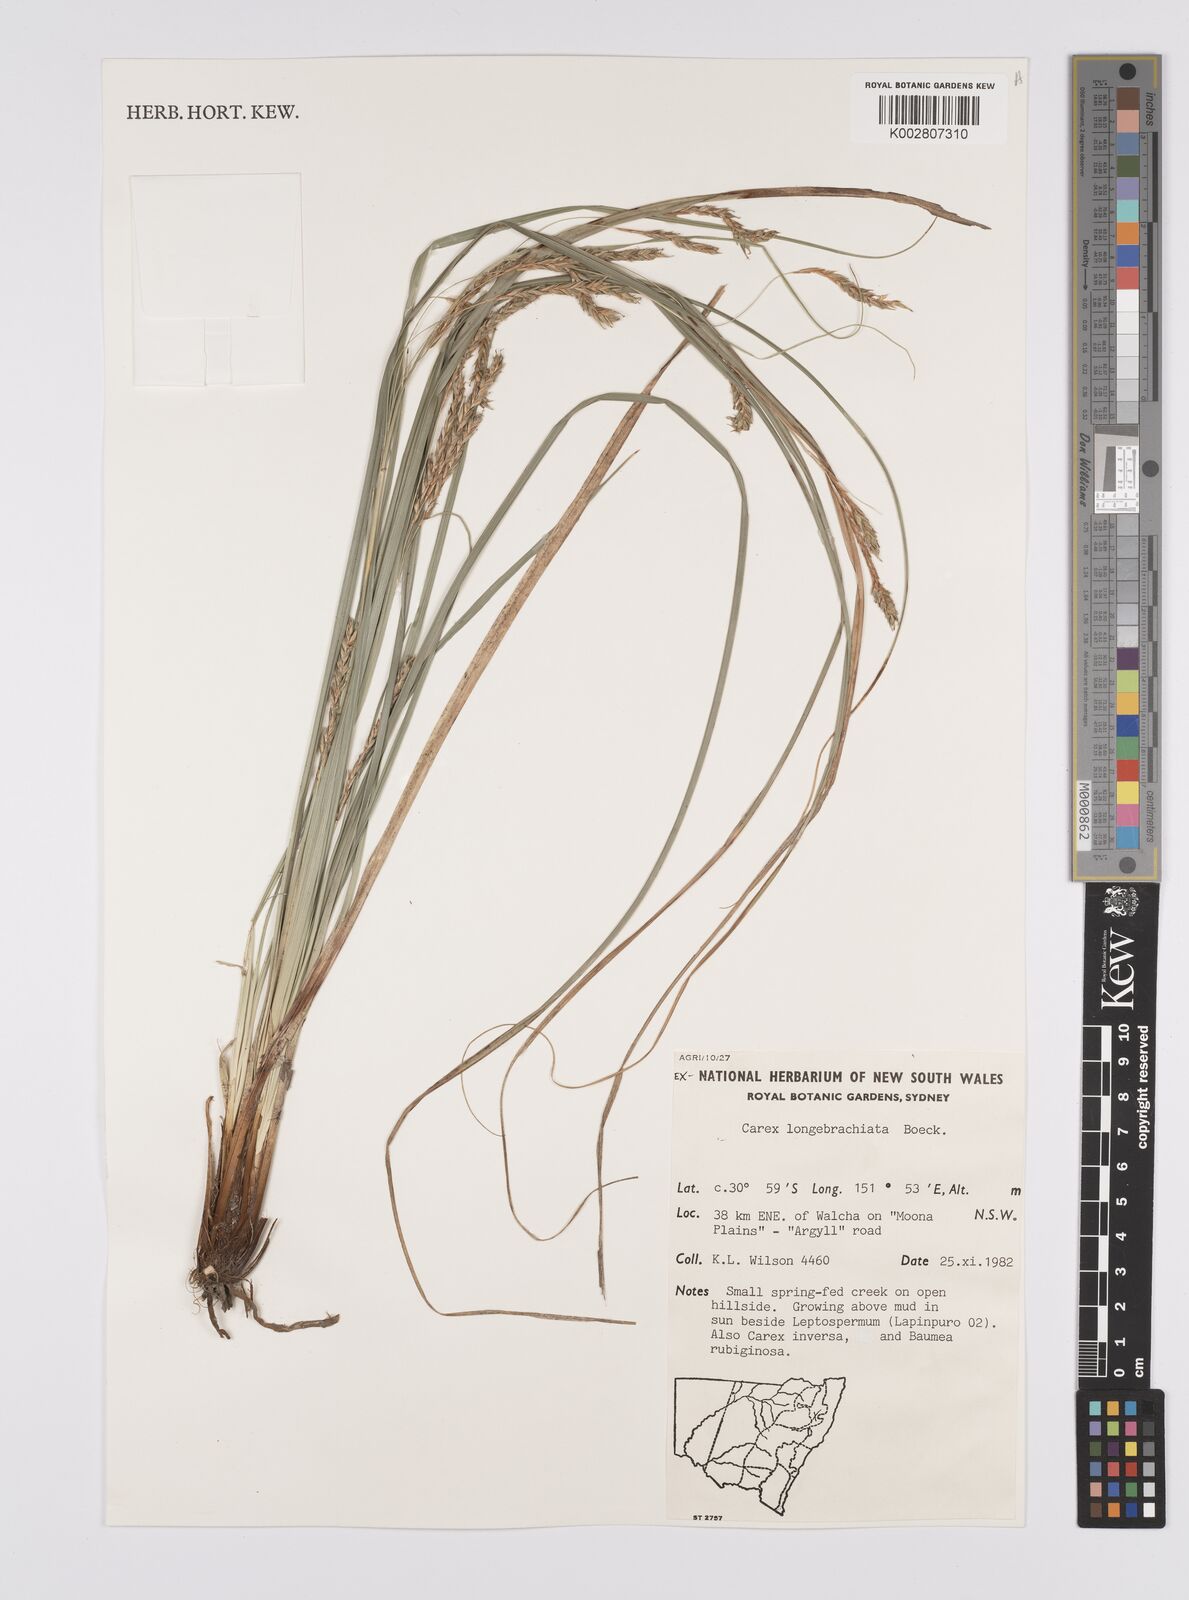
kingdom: Plantae
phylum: Tracheophyta
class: Liliopsida
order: Poales
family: Cyperaceae
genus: Carex
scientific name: Carex pseudocyperus
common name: Cyperus sedge
